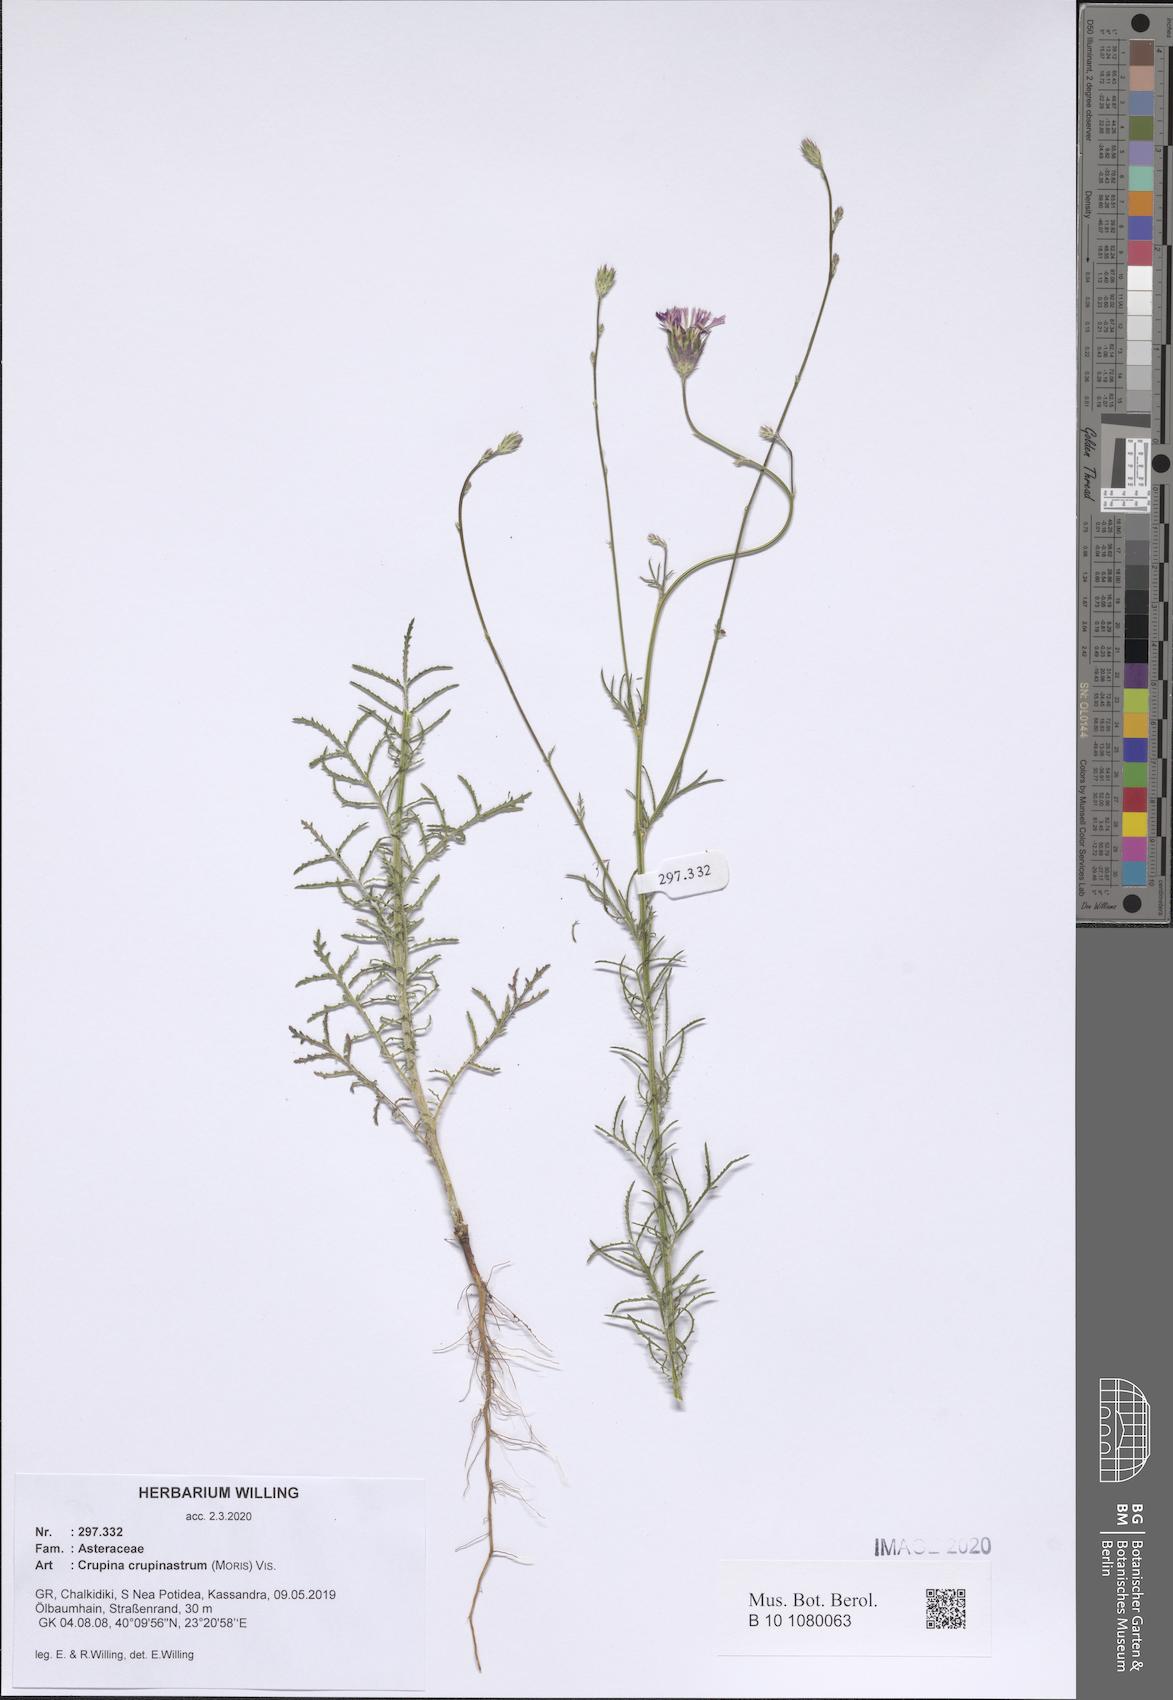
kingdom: Plantae
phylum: Tracheophyta
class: Magnoliopsida
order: Asterales
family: Asteraceae
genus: Crupina
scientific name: Crupina crupinastrum
